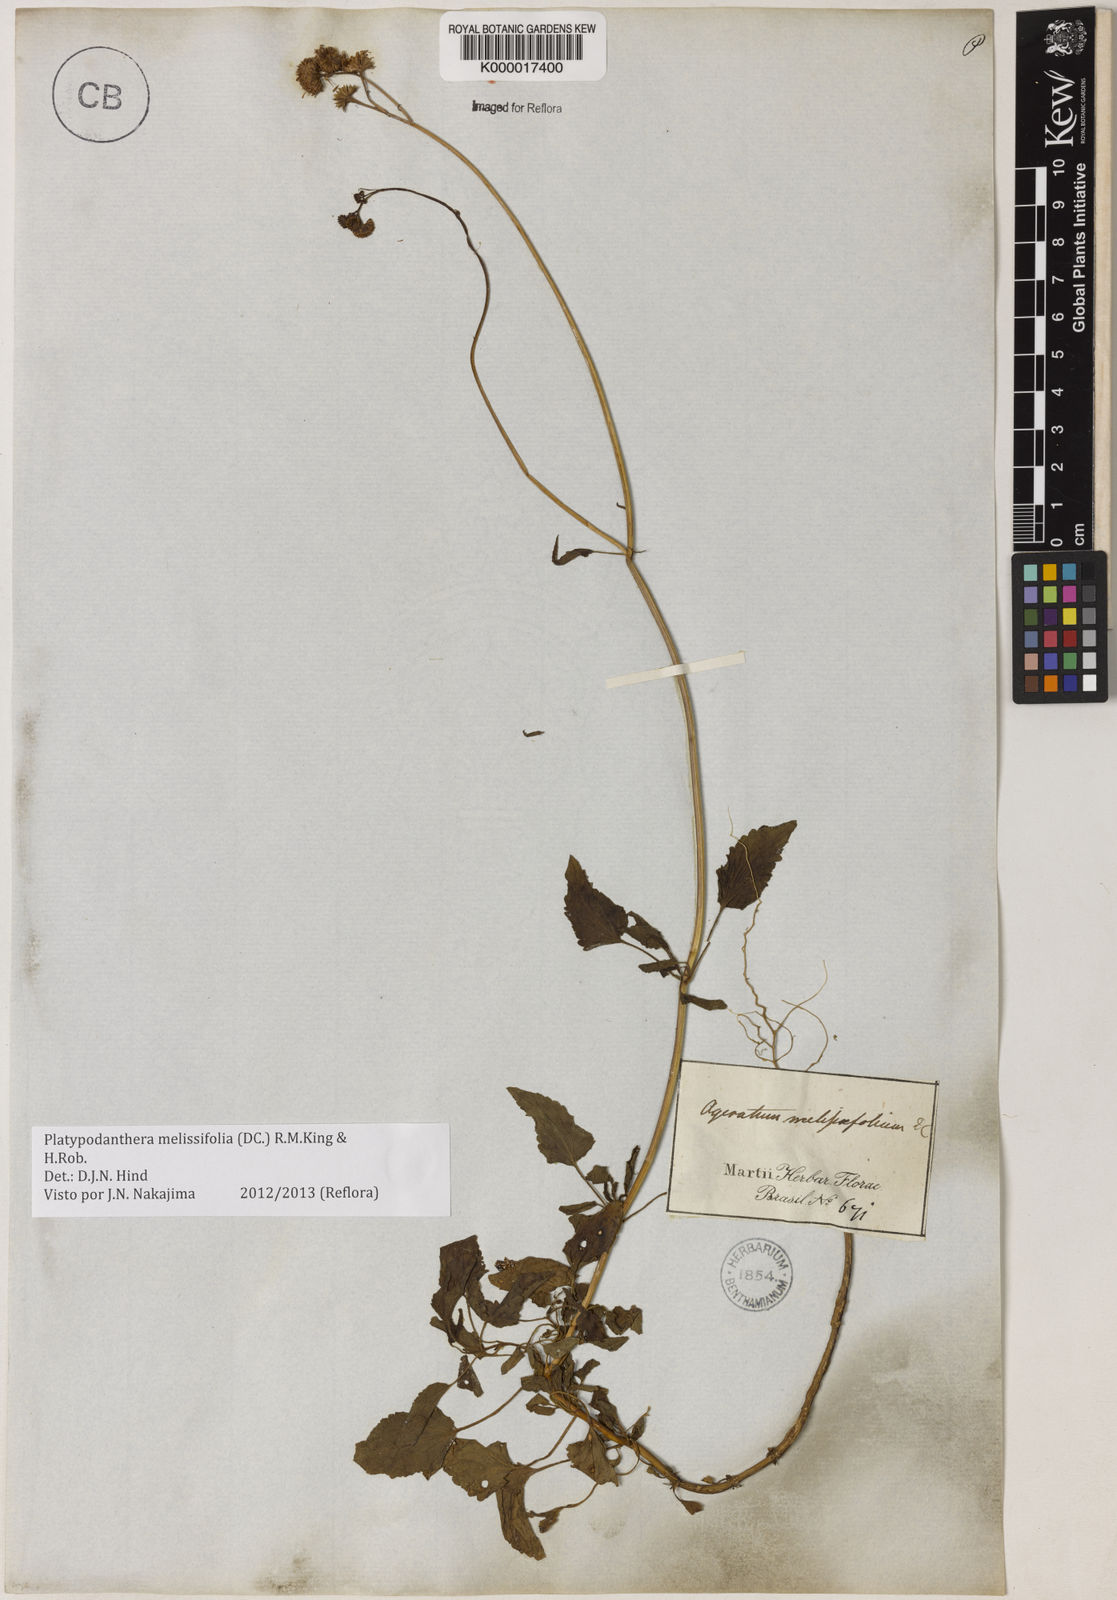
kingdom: Plantae
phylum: Tracheophyta
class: Magnoliopsida
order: Asterales
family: Asteraceae
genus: Platypodanthera
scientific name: Platypodanthera melissifolia
